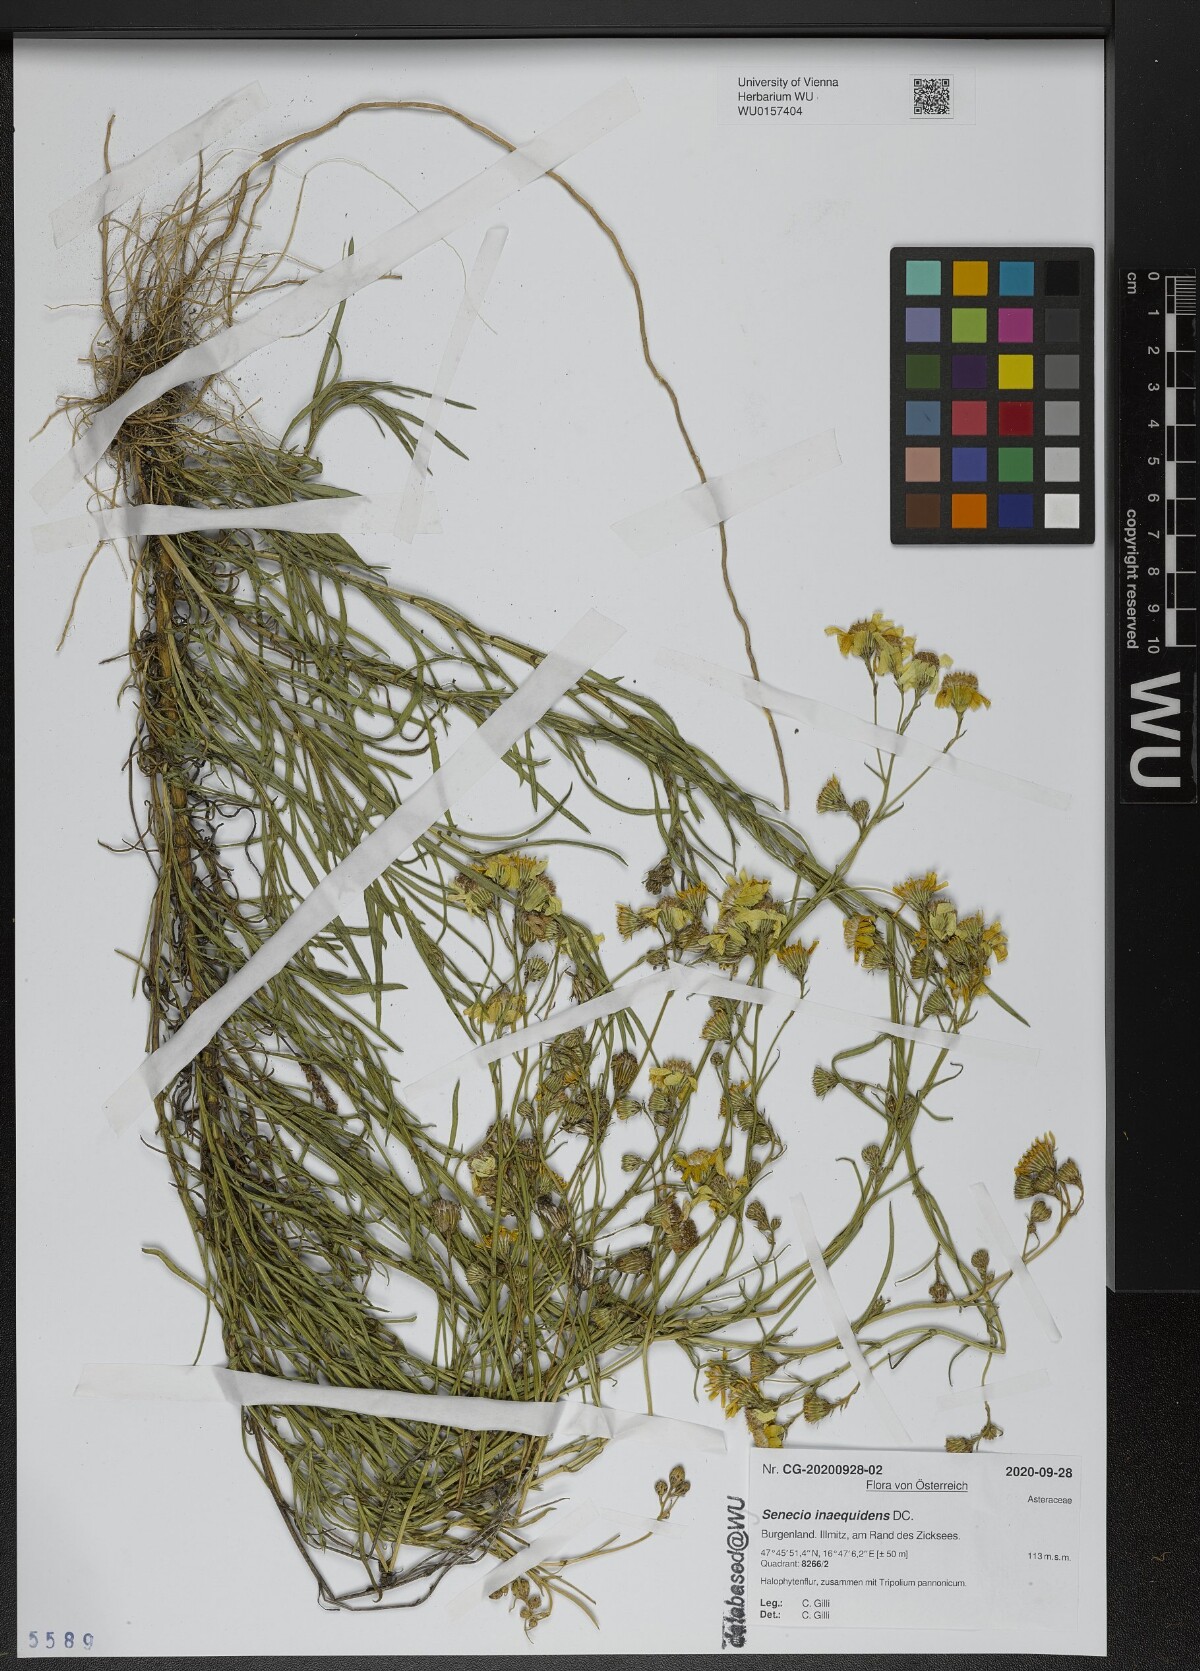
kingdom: Plantae
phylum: Tracheophyta
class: Magnoliopsida
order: Asterales
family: Asteraceae
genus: Senecio
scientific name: Senecio inaequidens
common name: Narrow-leaved ragwort
